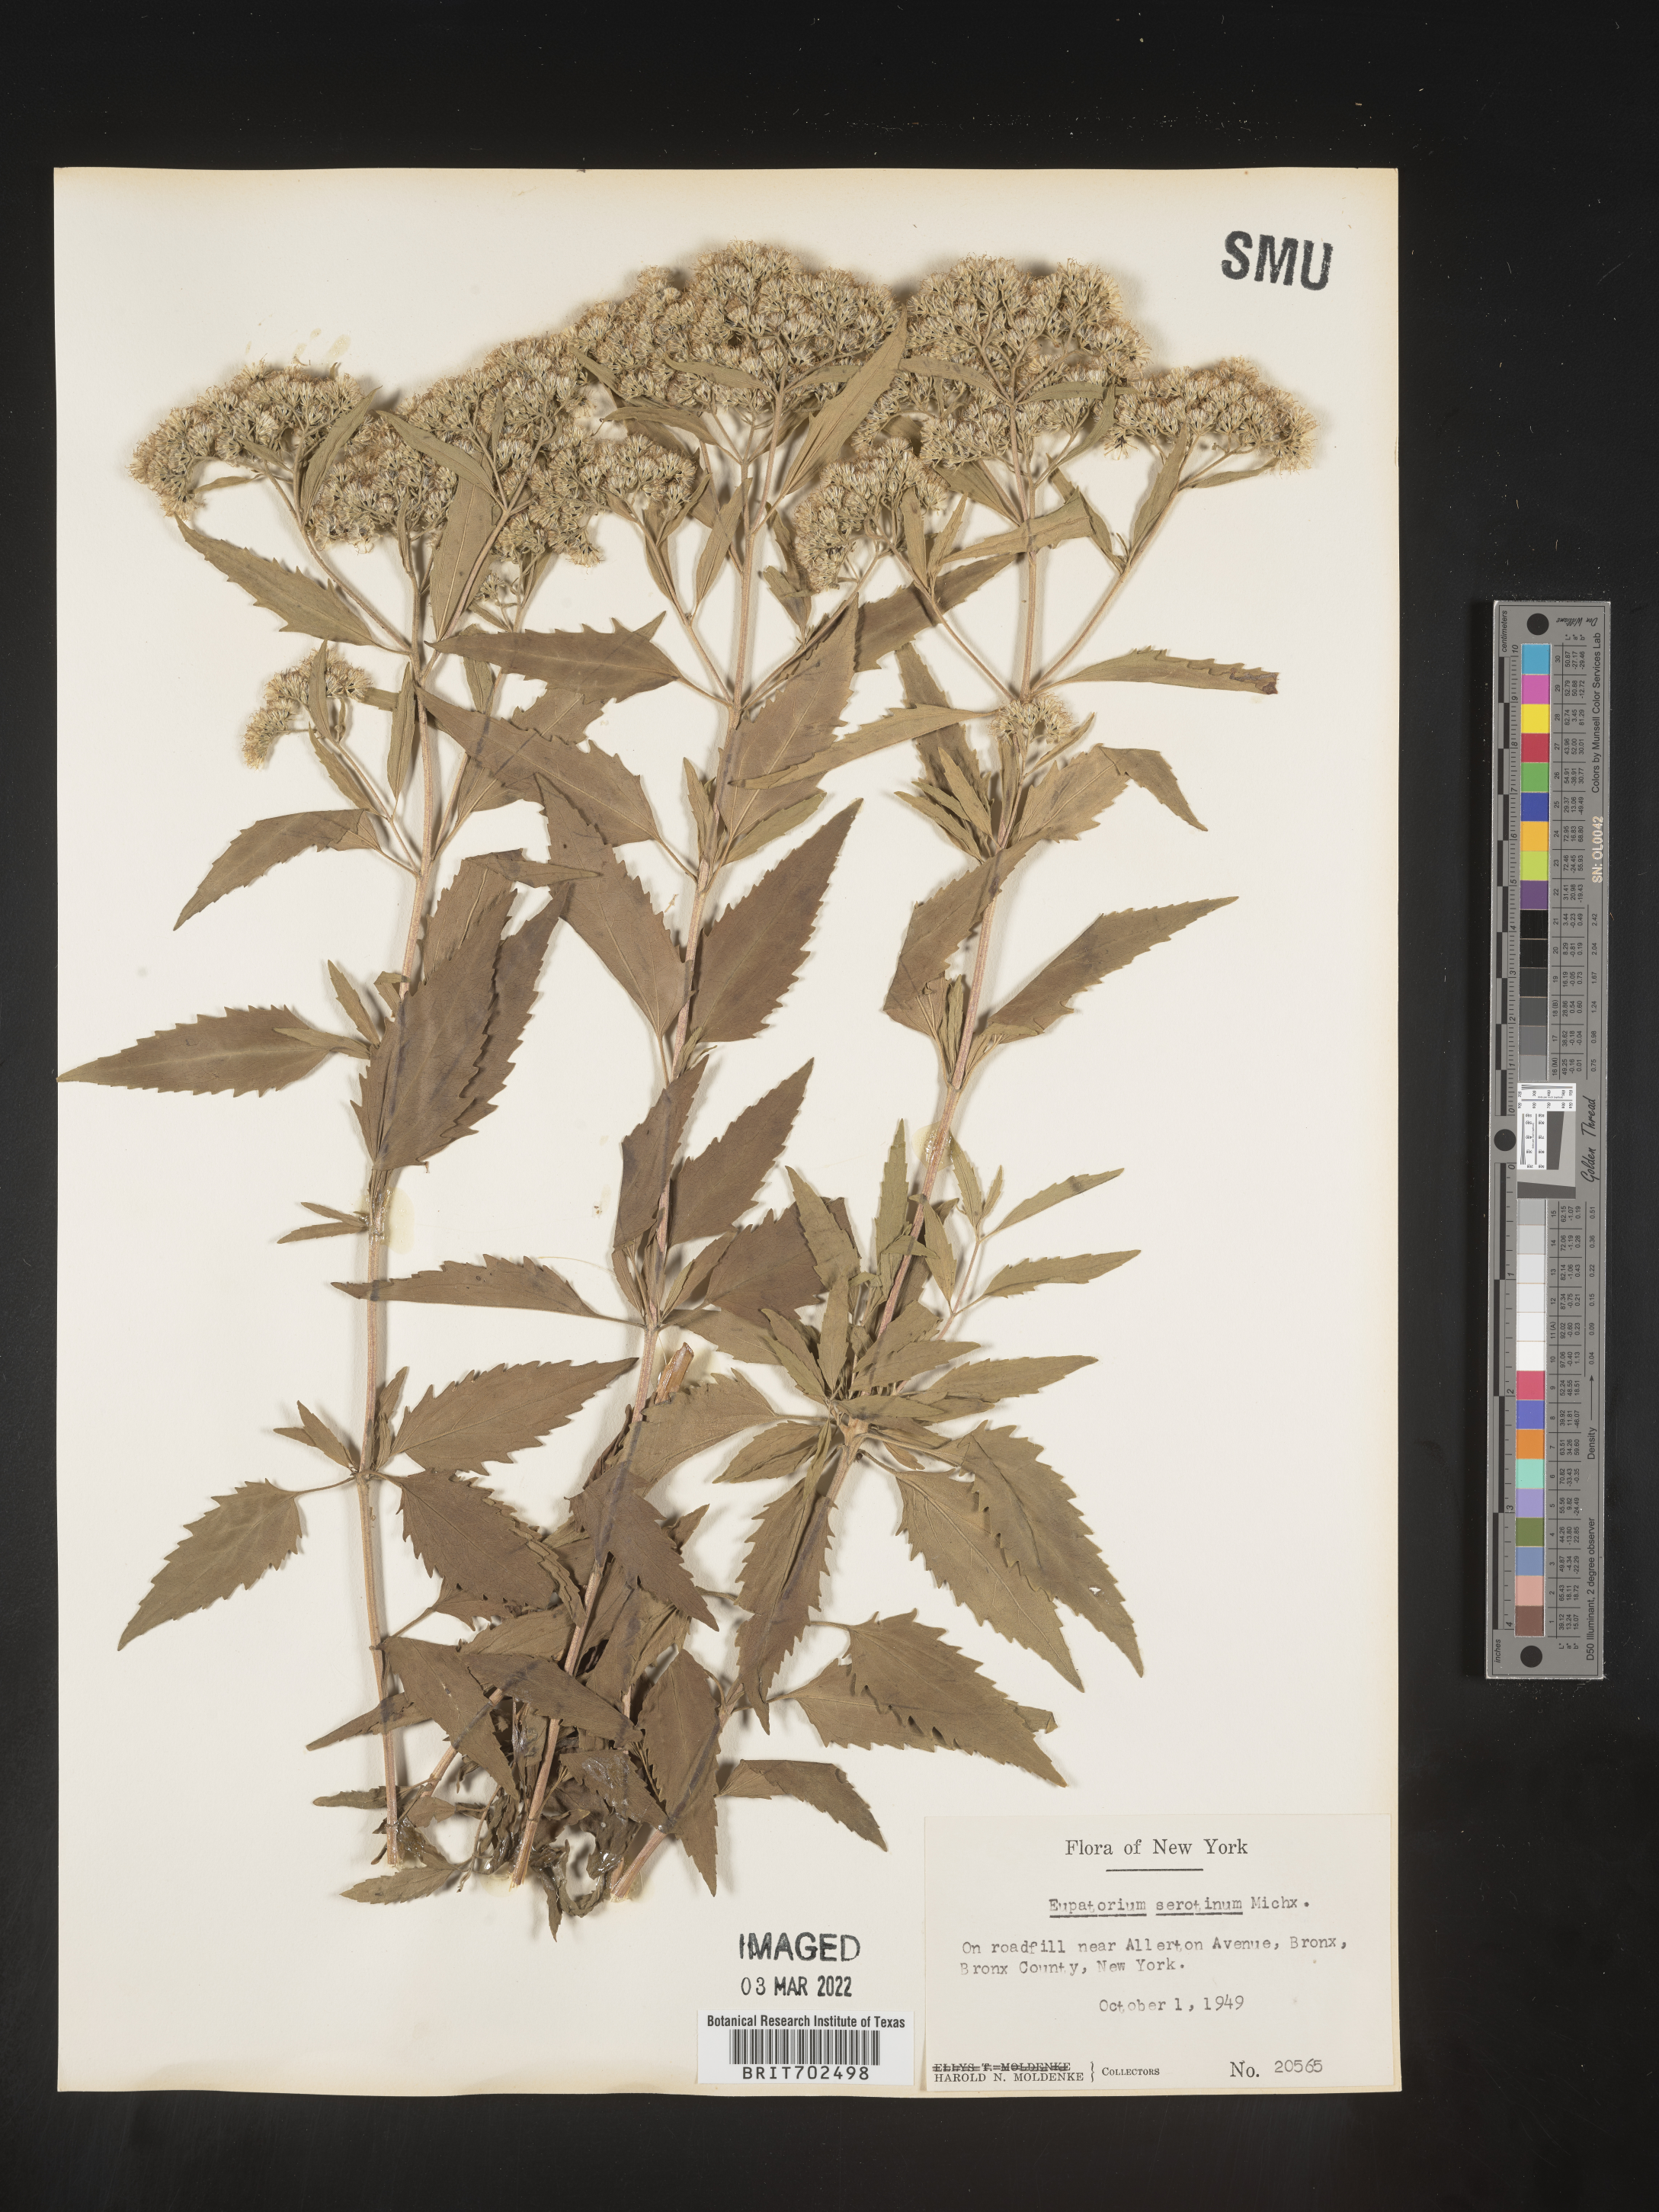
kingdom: Plantae
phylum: Tracheophyta
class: Magnoliopsida
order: Asterales
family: Asteraceae
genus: Eupatorium
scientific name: Eupatorium serotinum
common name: Late boneset
